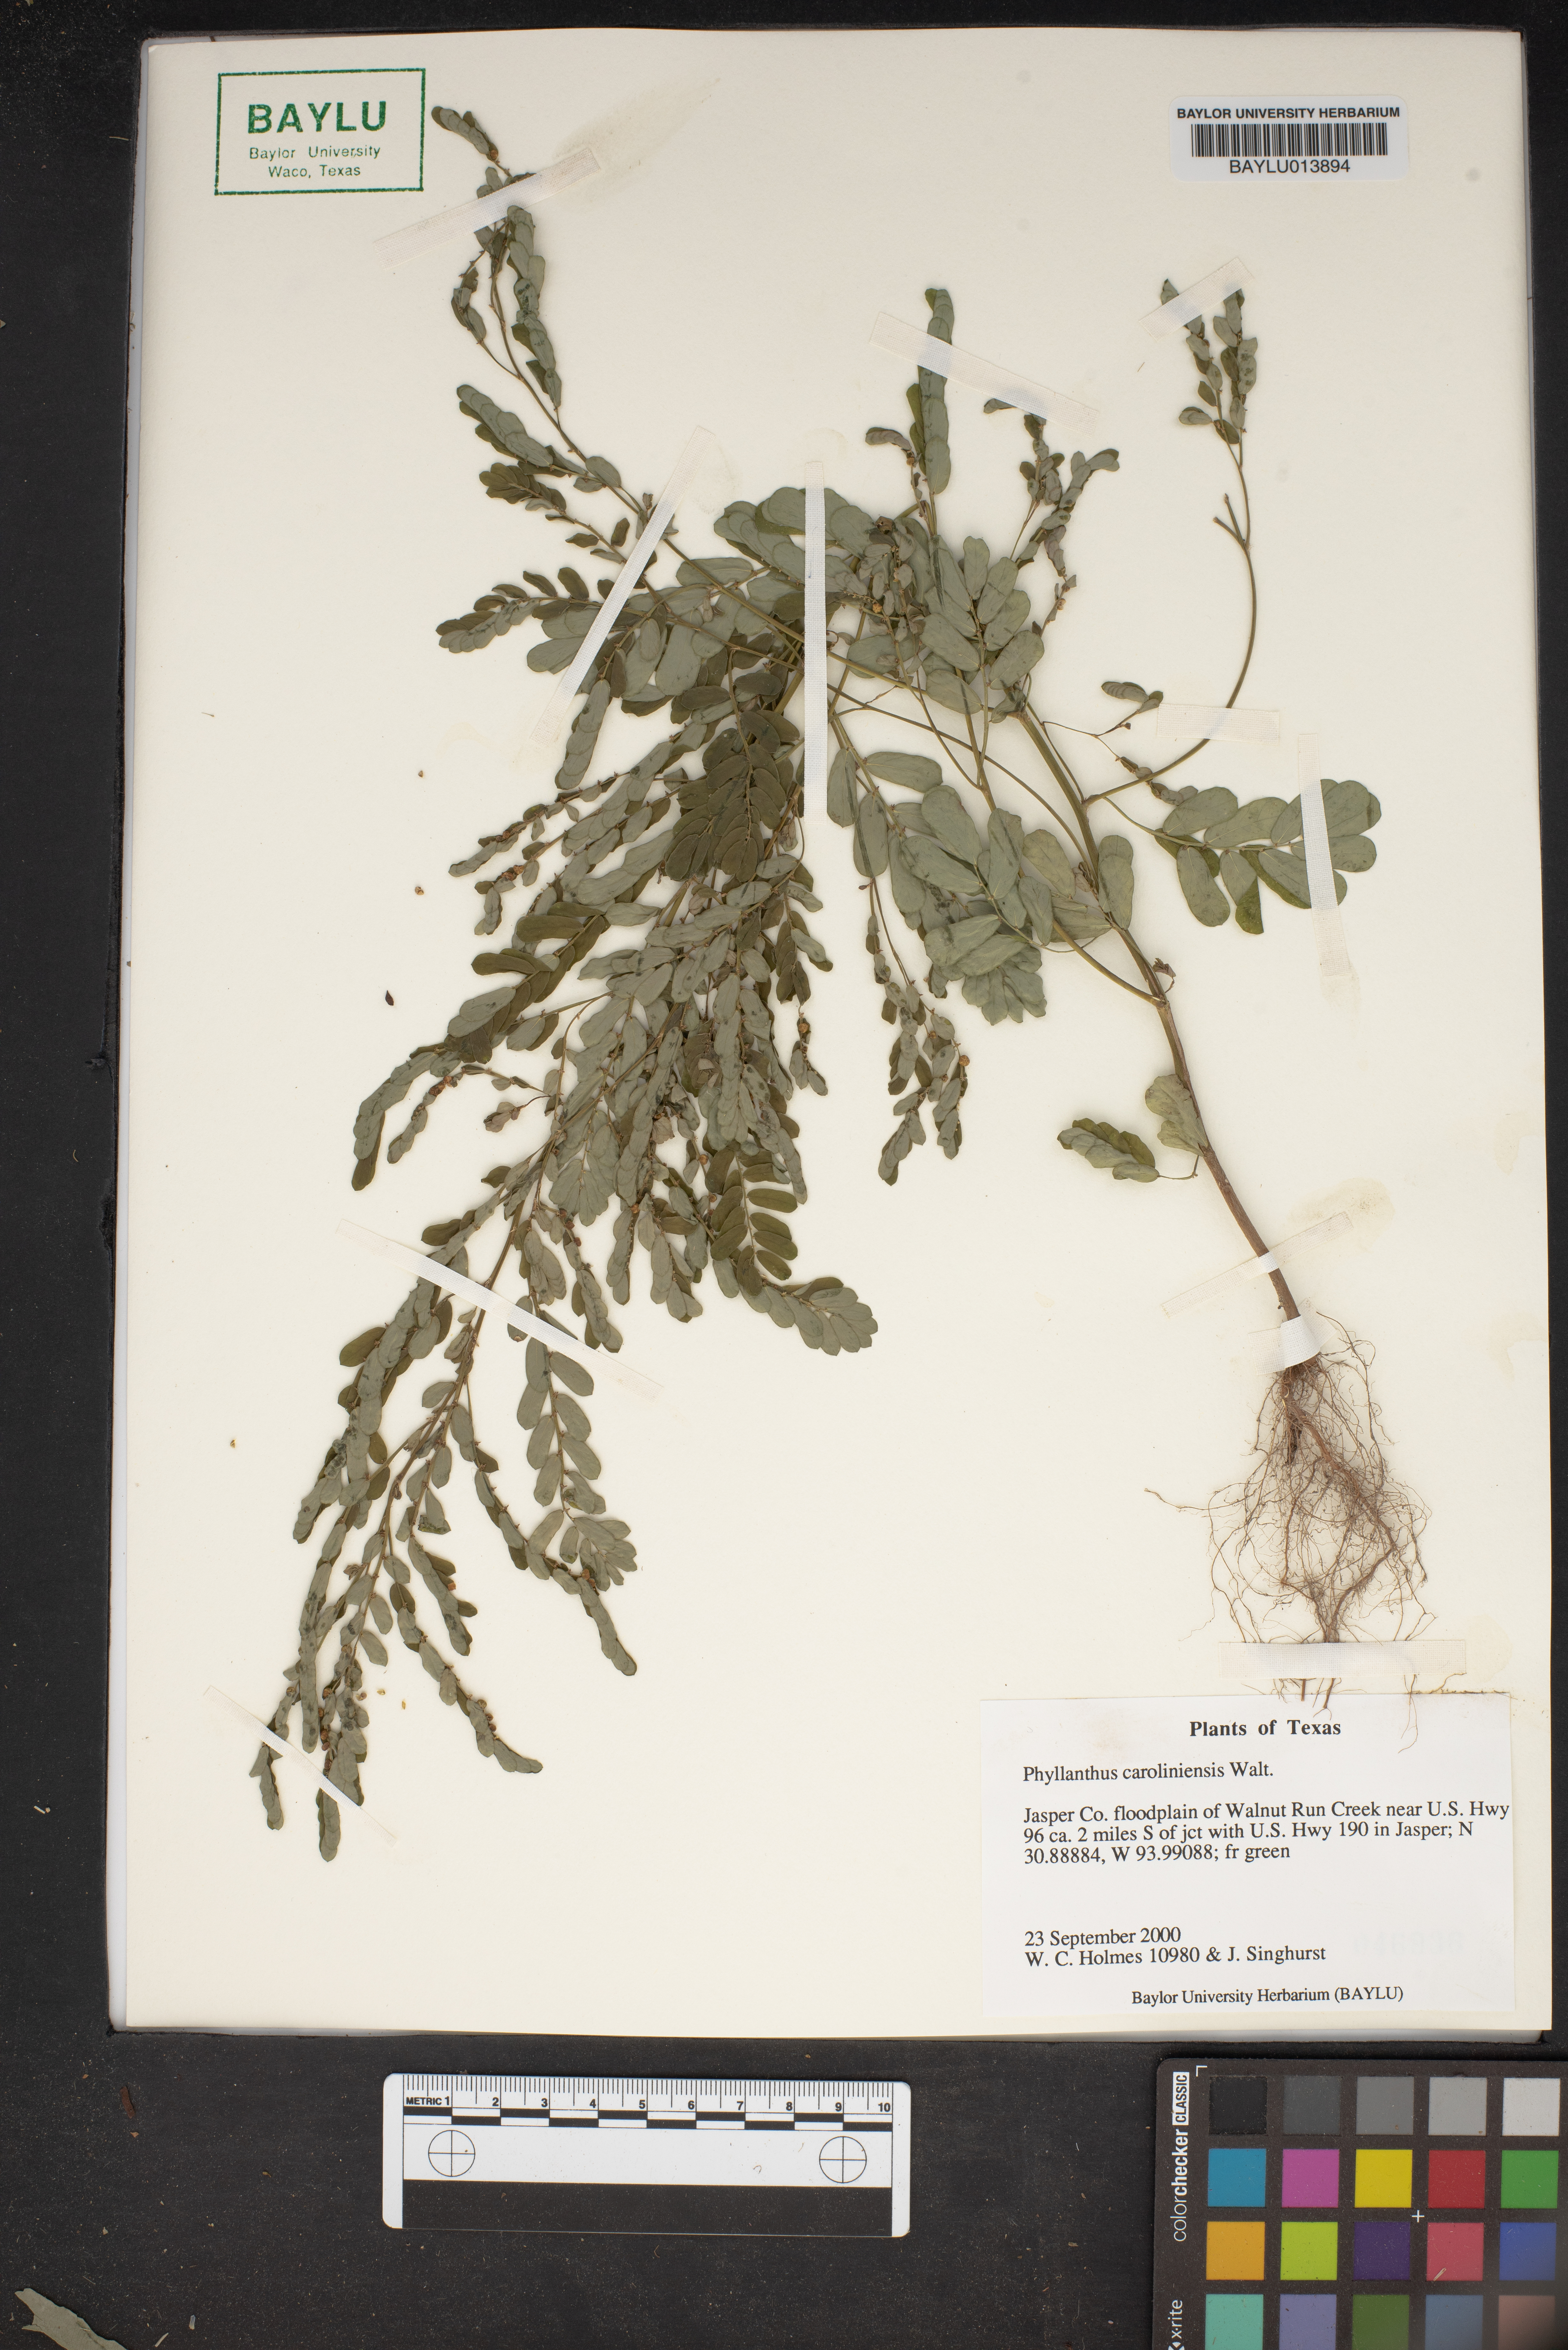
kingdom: Plantae
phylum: Tracheophyta
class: Magnoliopsida
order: Malpighiales
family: Phyllanthaceae
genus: Phyllanthus
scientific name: Phyllanthus carolinensis
